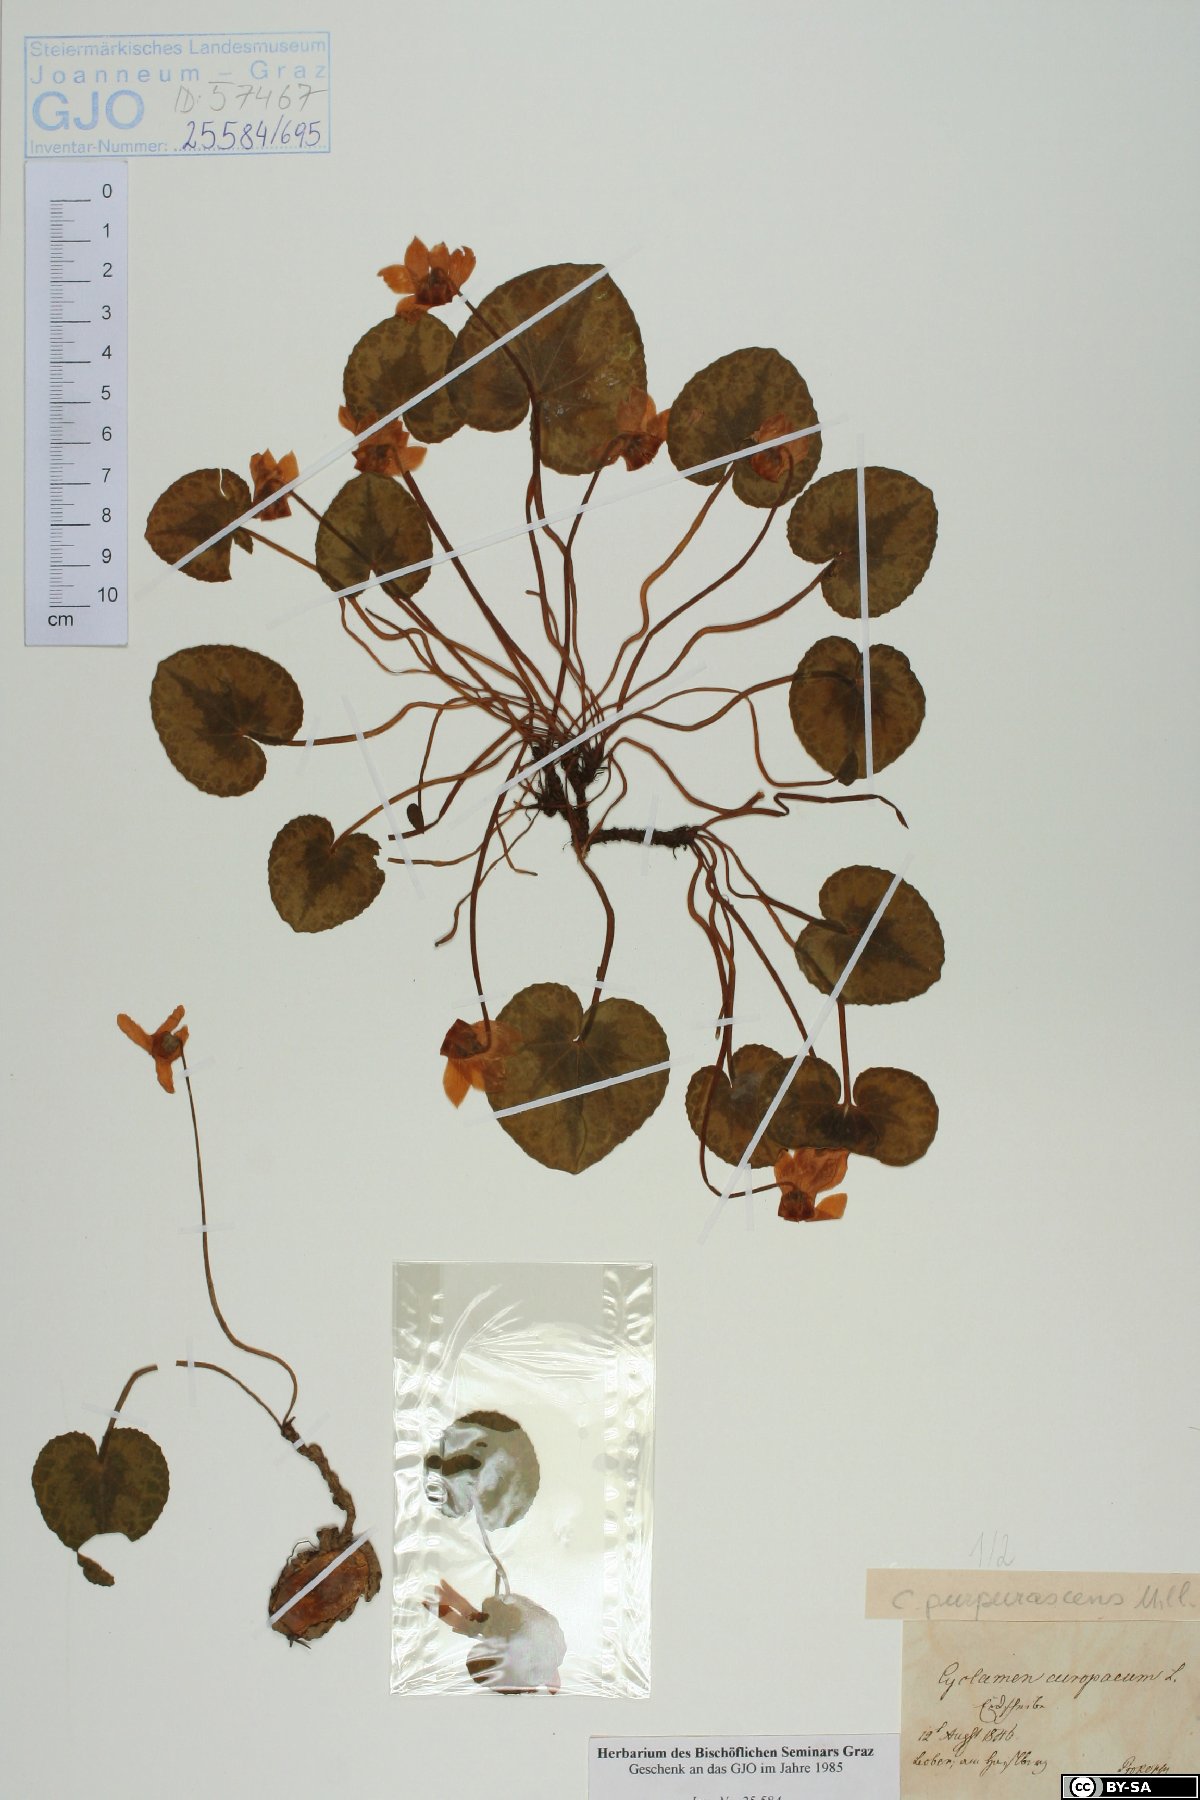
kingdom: Plantae
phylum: Tracheophyta
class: Magnoliopsida
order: Ericales
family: Primulaceae
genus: Cyclamen
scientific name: Cyclamen purpurascens
